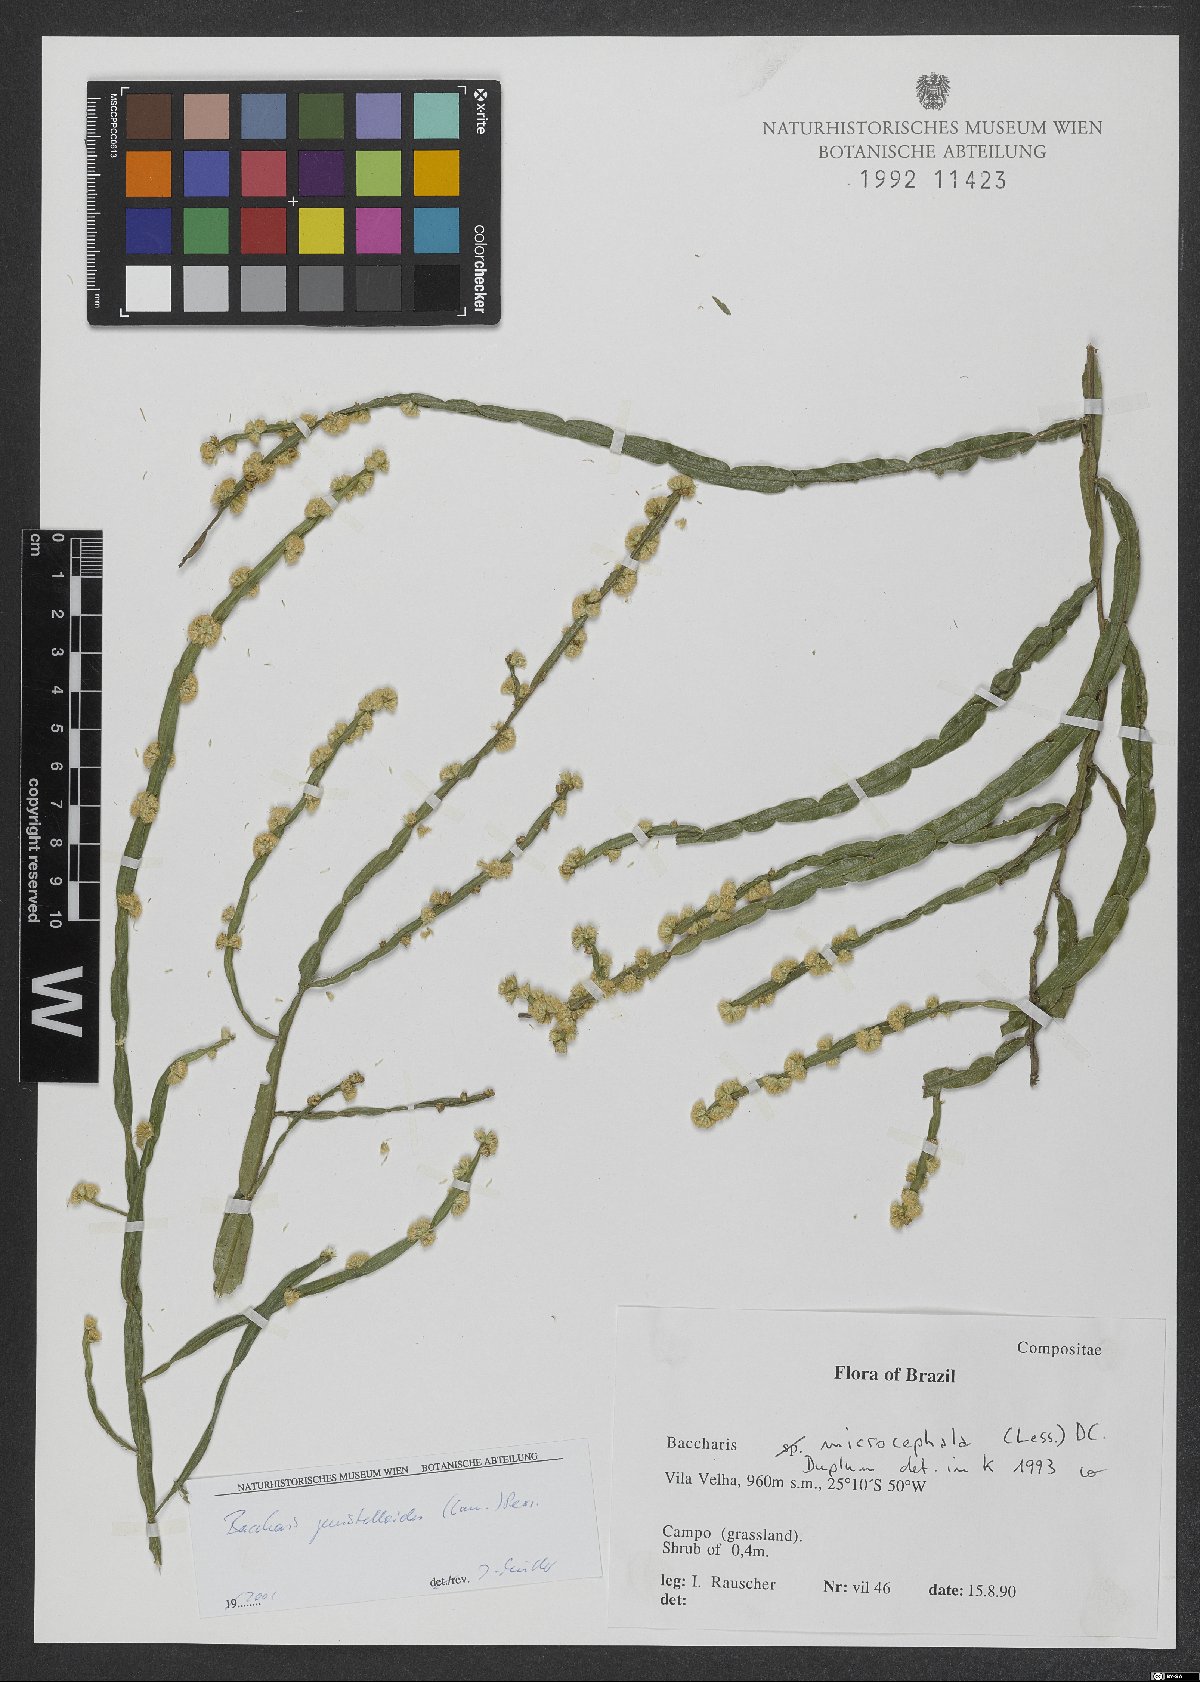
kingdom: Plantae
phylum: Tracheophyta
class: Magnoliopsida
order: Asterales
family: Asteraceae
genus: Baccharis
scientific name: Baccharis genistelloides
